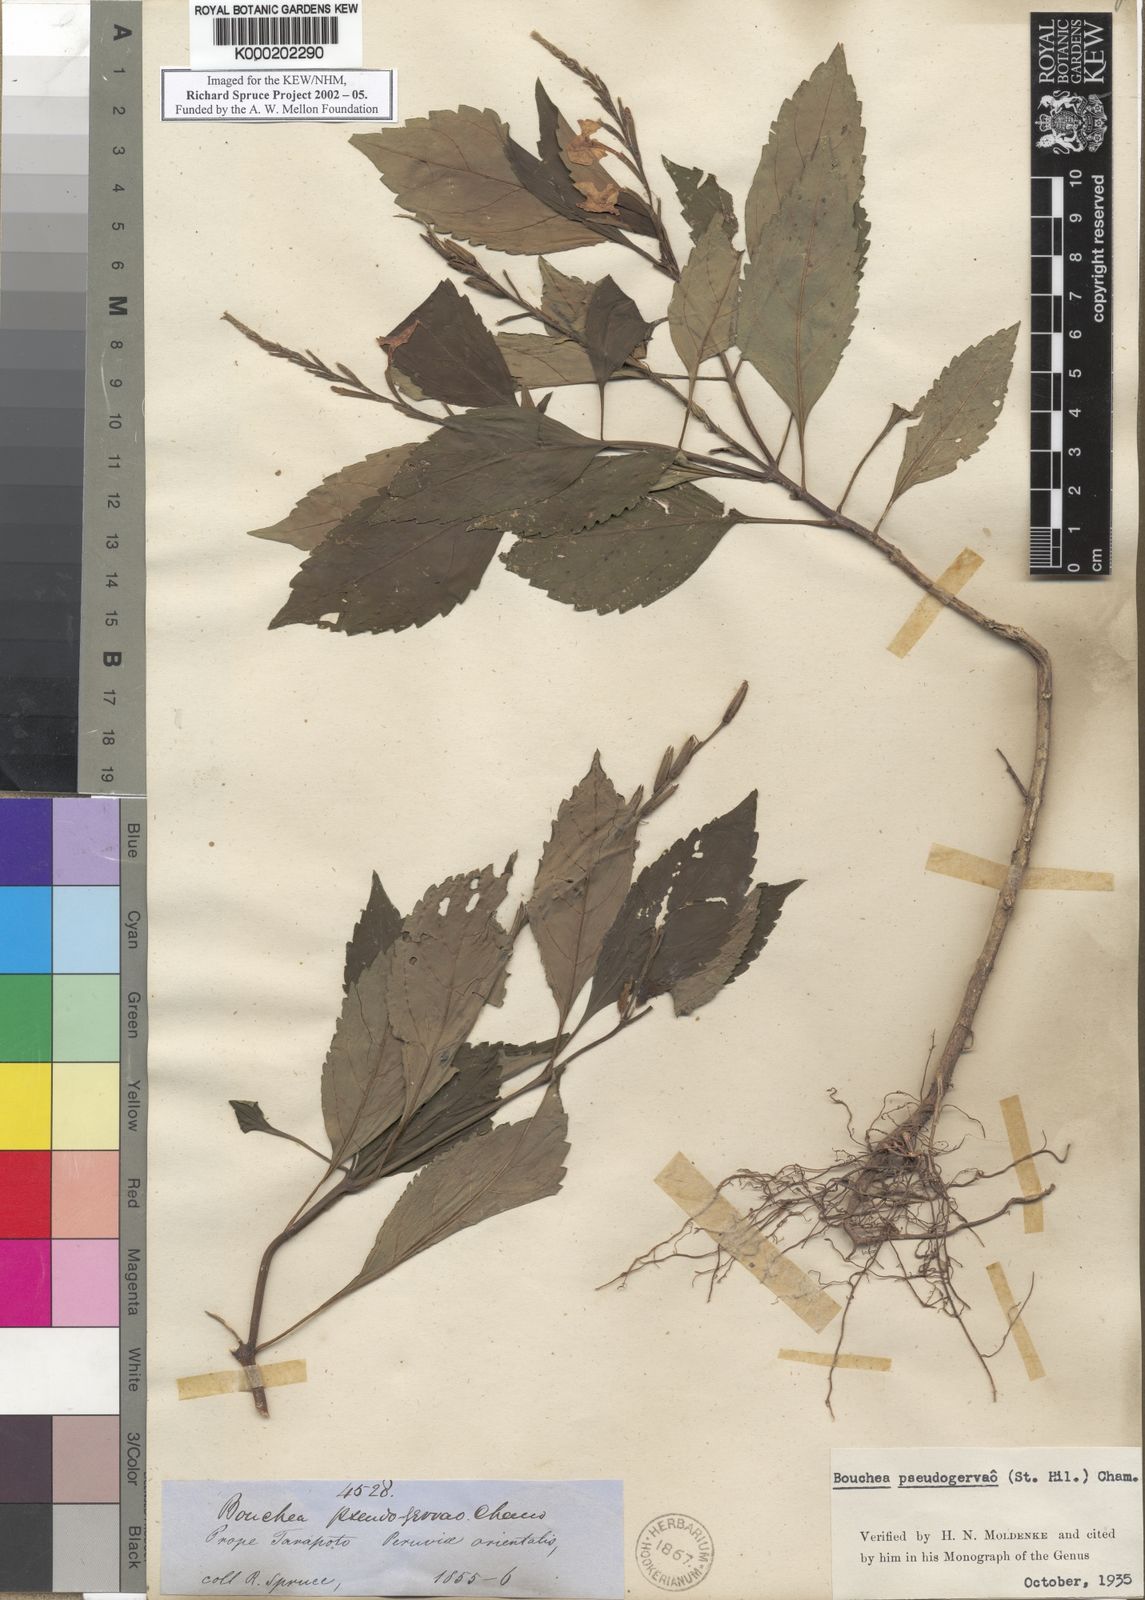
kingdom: Plantae
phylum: Tracheophyta
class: Magnoliopsida
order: Lamiales
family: Verbenaceae
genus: Bouchea
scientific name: Bouchea pseudogervao
